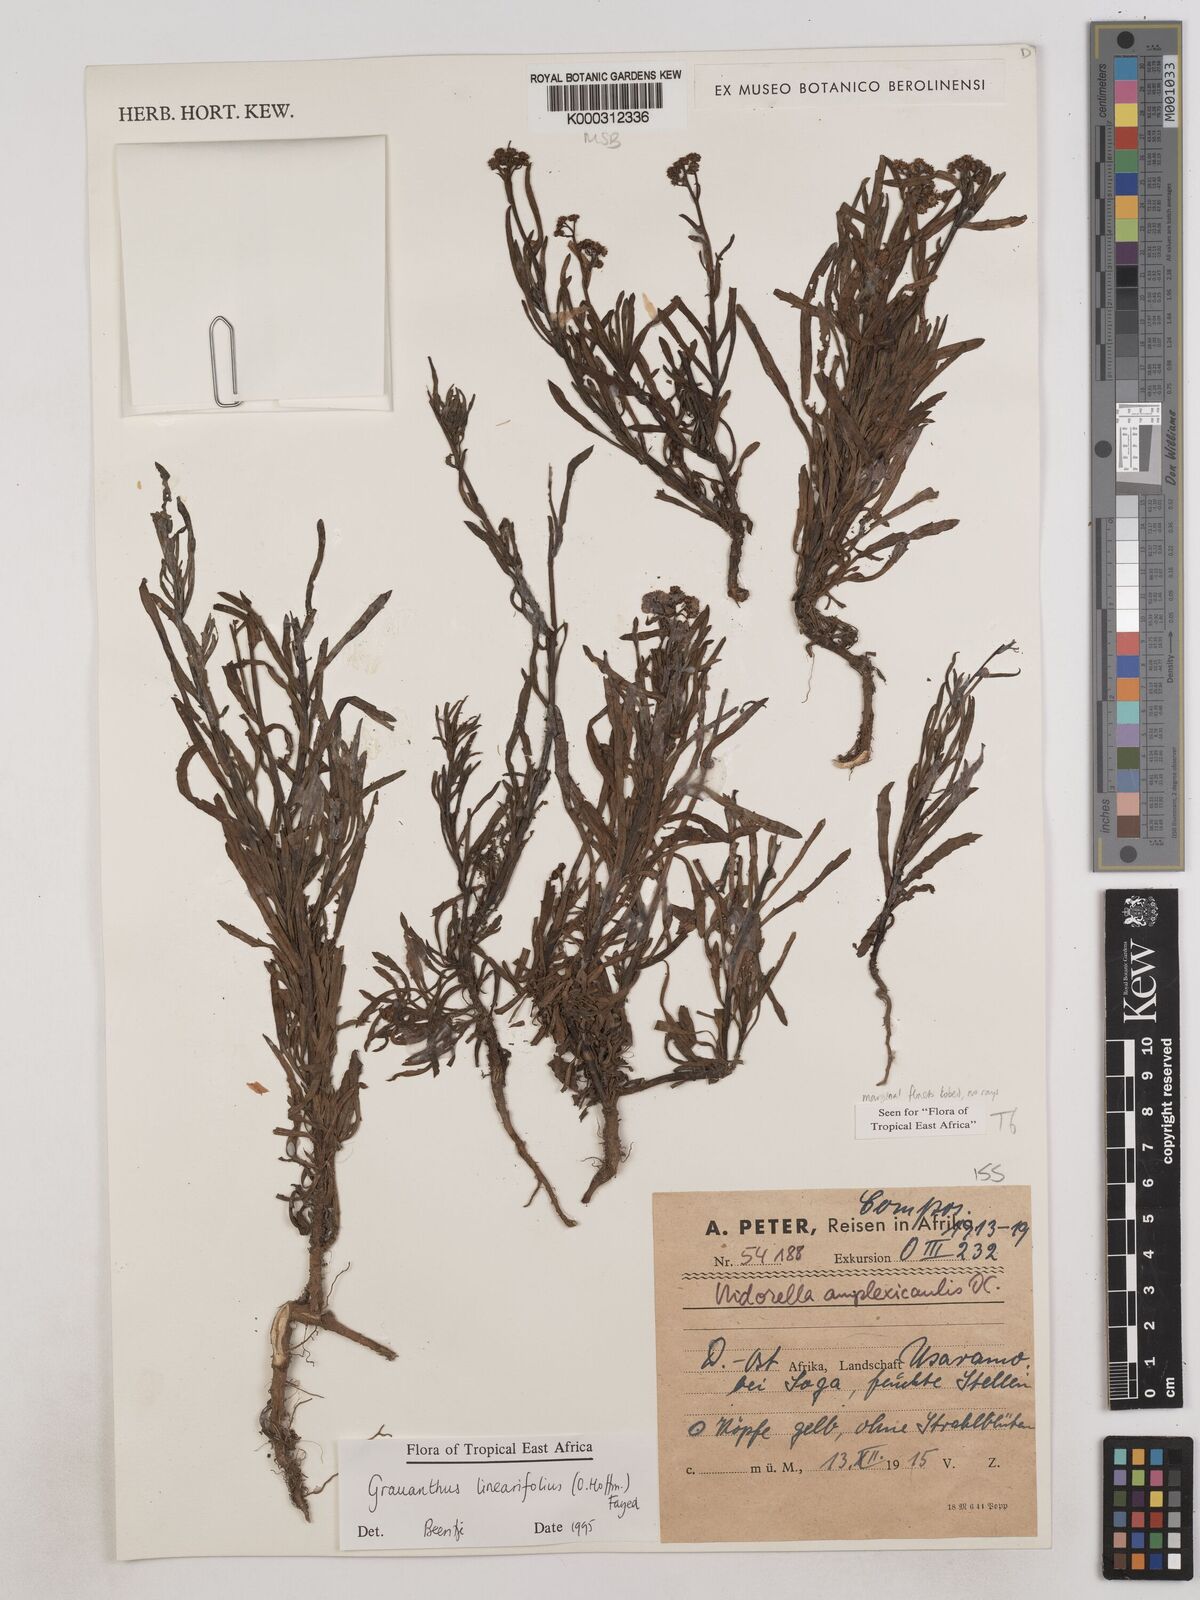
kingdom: Plantae
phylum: Tracheophyta
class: Magnoliopsida
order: Asterales
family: Asteraceae
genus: Grauanthus
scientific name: Grauanthus linearifolius
